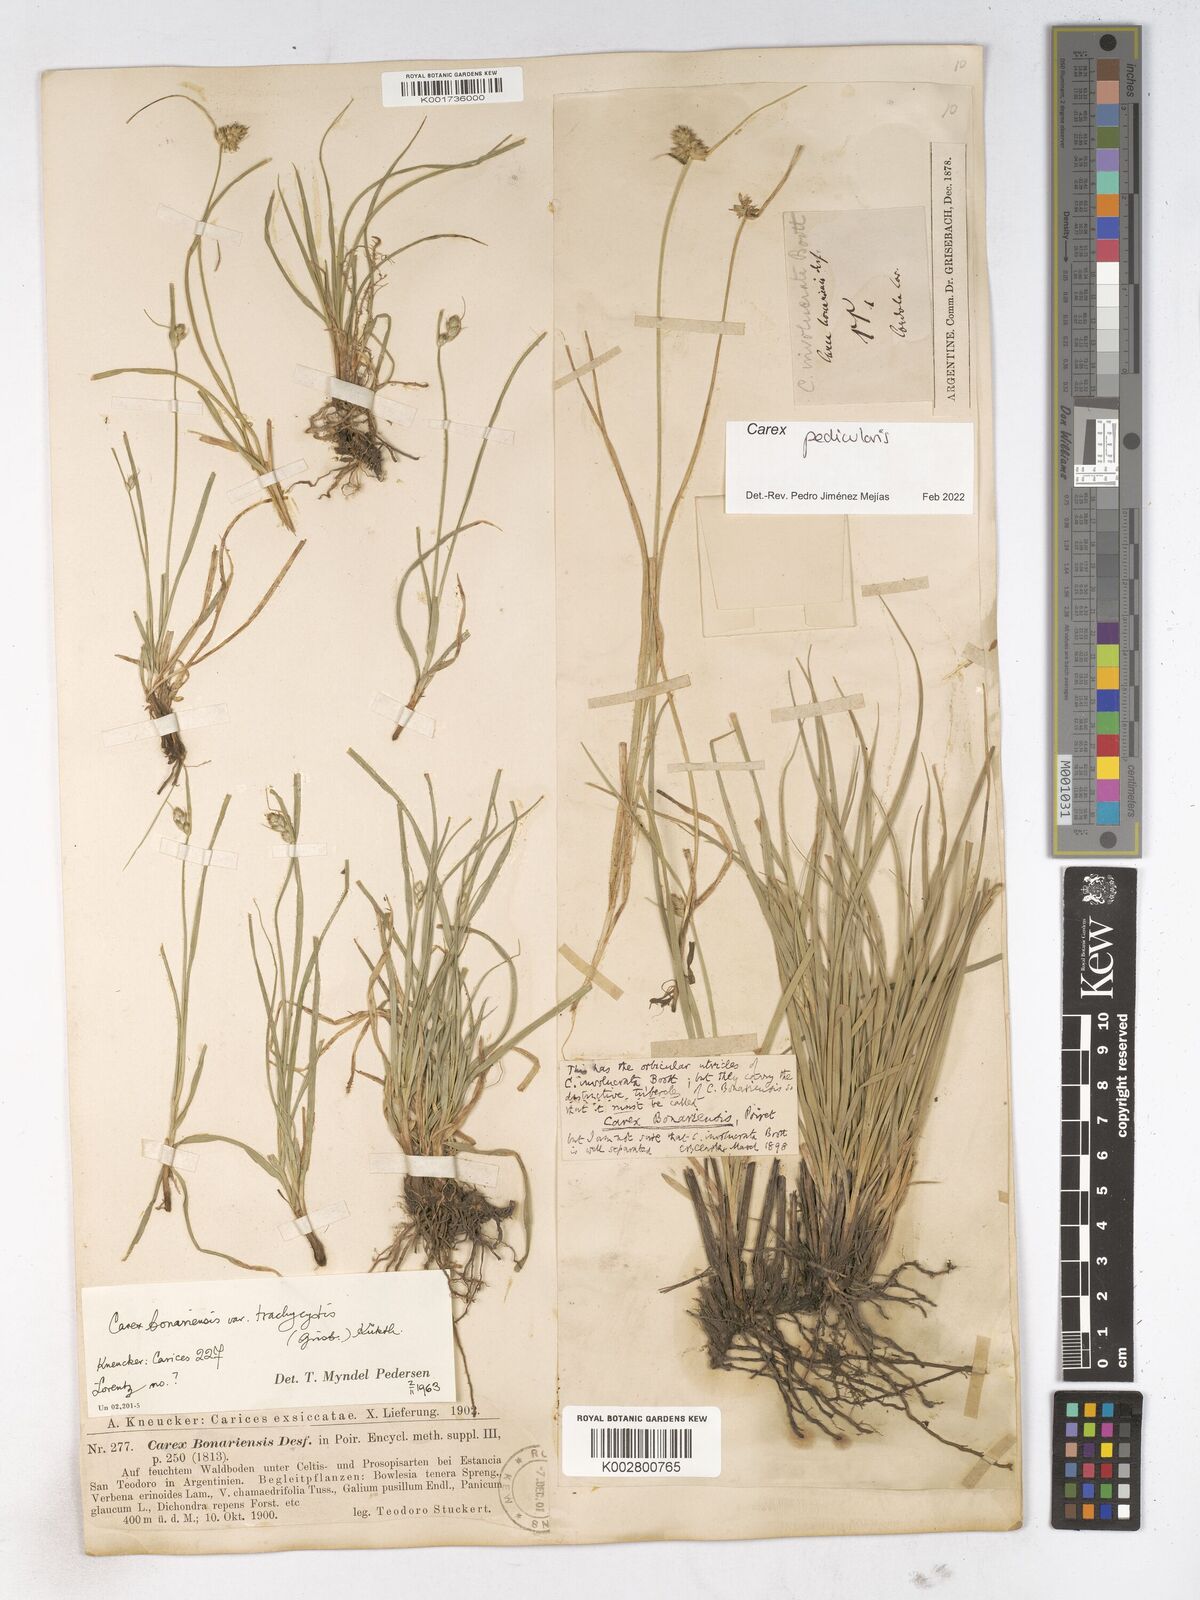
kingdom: Plantae
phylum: Tracheophyta
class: Liliopsida
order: Poales
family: Cyperaceae
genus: Carex
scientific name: Carex bonariensis
